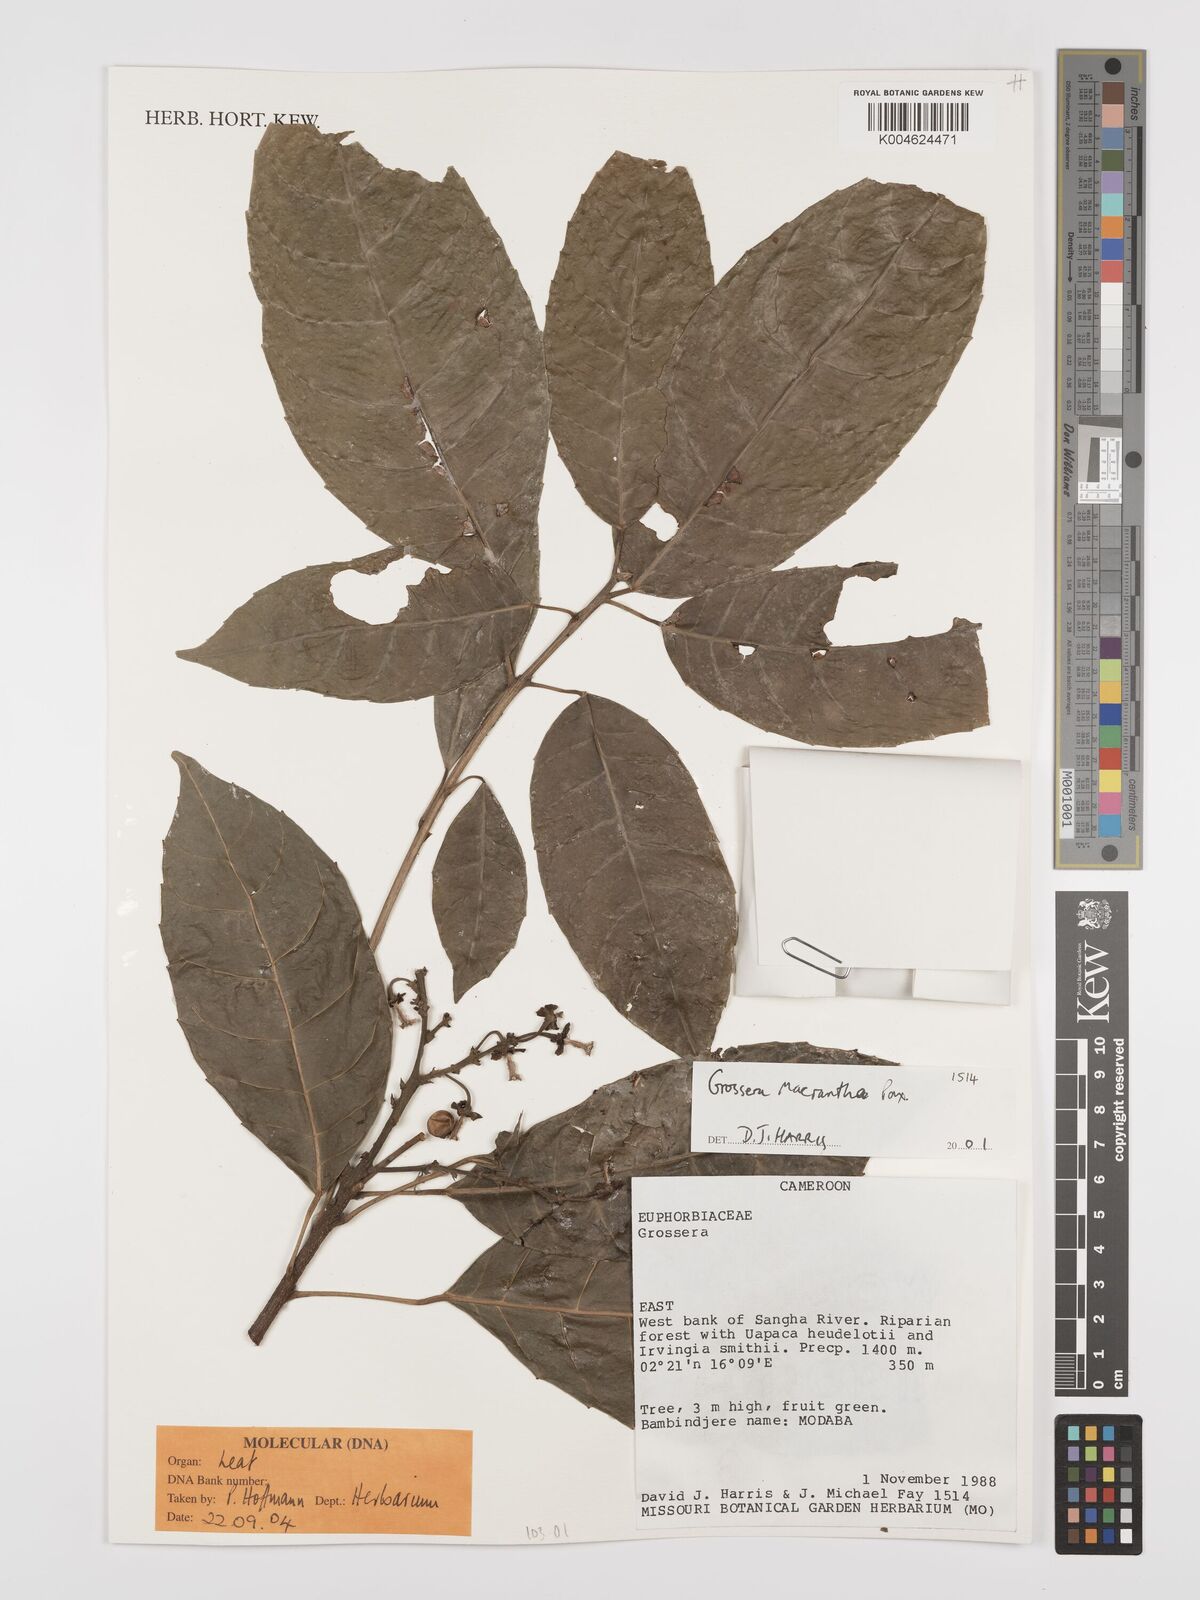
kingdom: Plantae
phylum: Tracheophyta
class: Magnoliopsida
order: Malpighiales
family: Euphorbiaceae
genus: Grossera
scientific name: Grossera macrantha
